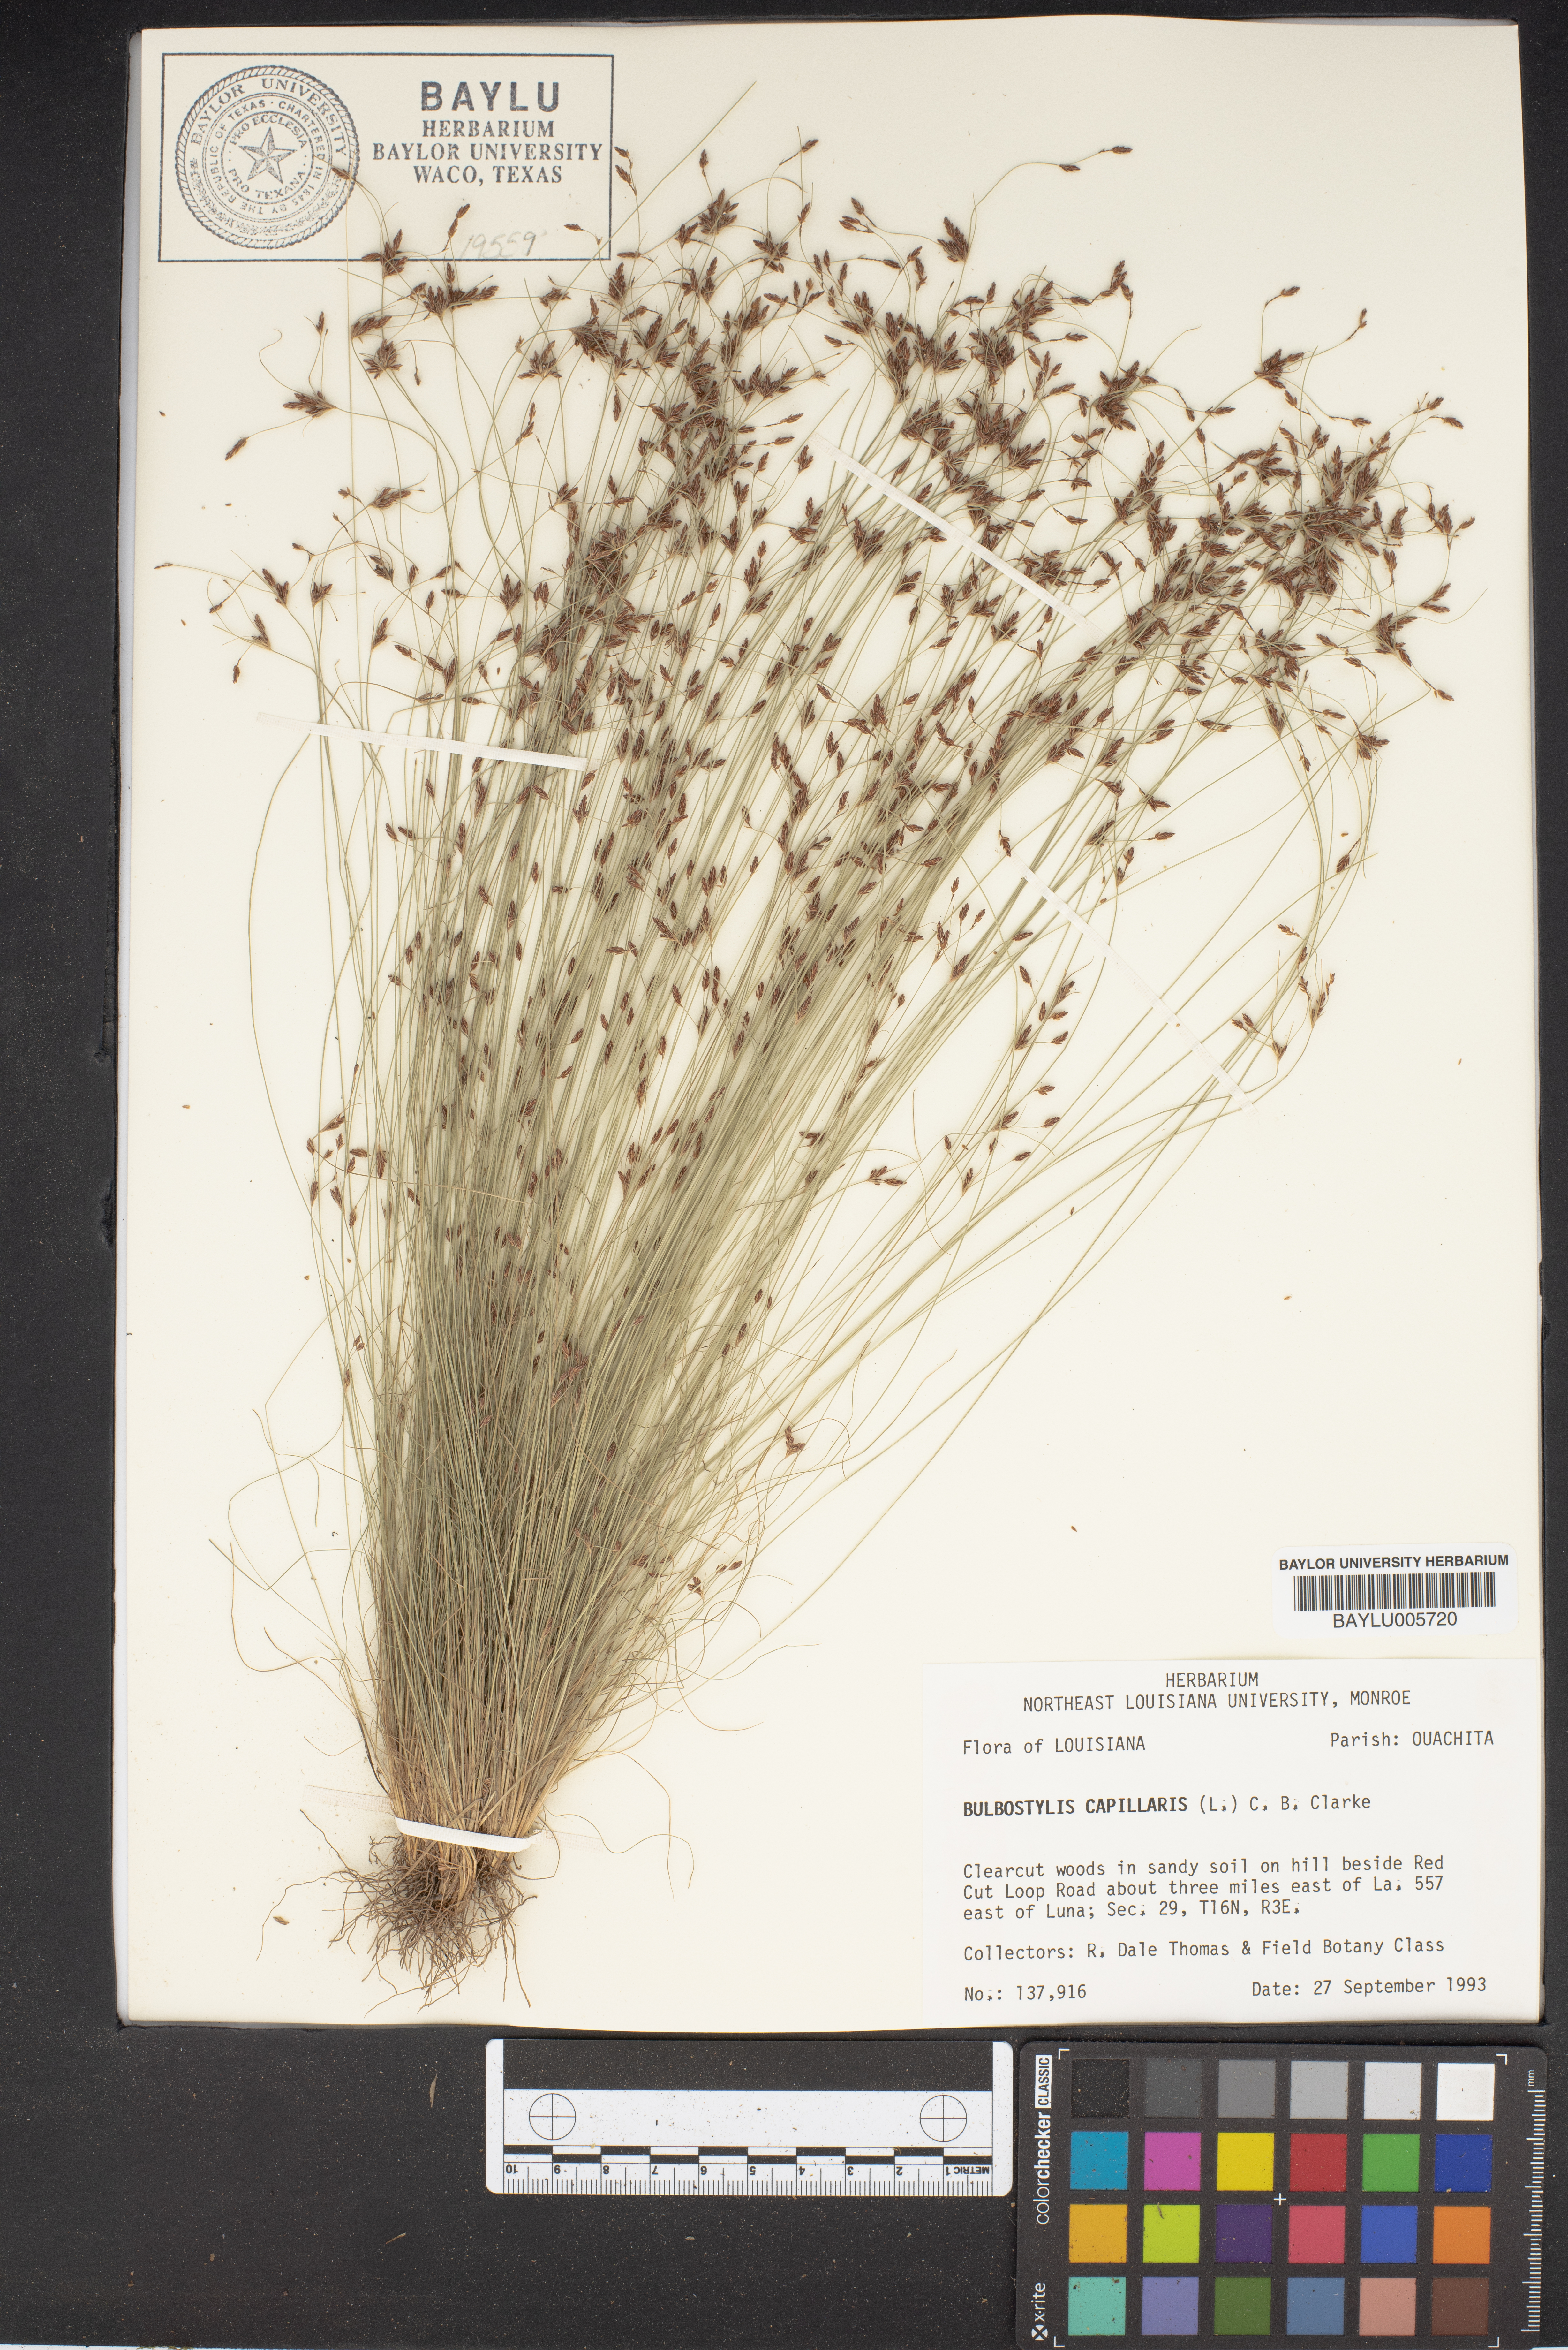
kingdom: Plantae
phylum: Tracheophyta
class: Liliopsida
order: Poales
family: Cyperaceae
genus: Bulbostylis
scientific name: Bulbostylis capillaris
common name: Densetuft hairsedge
